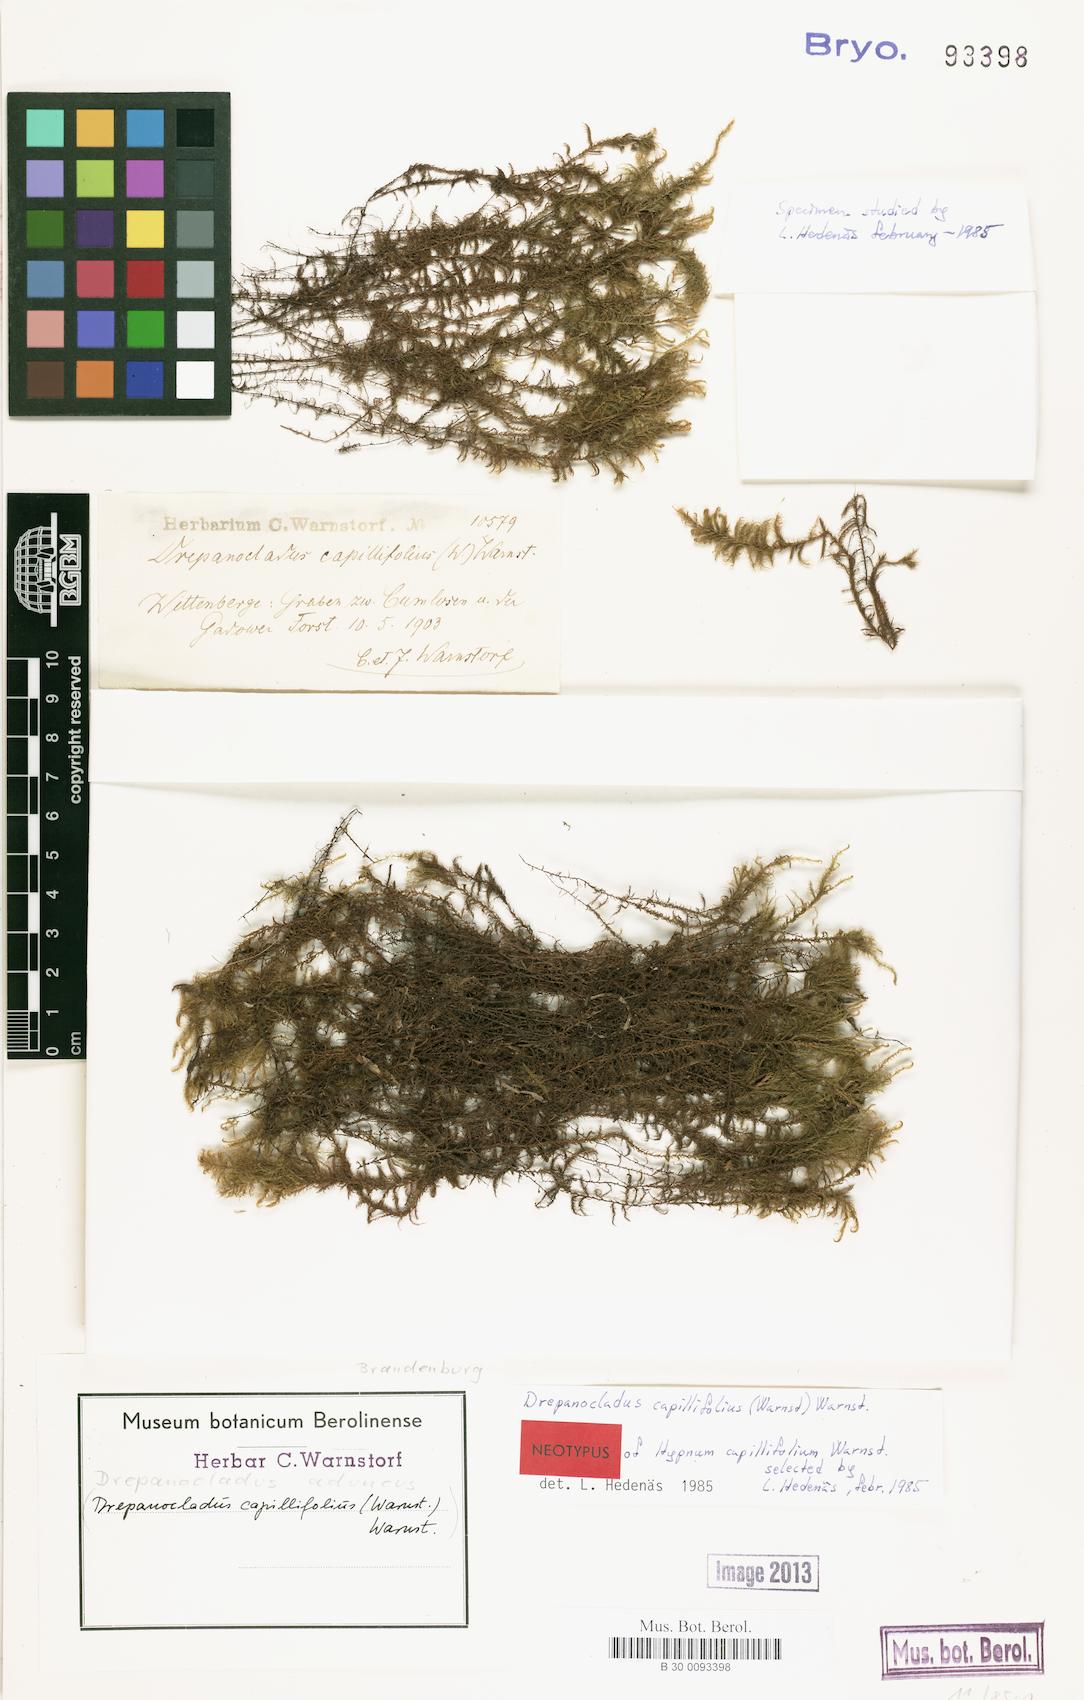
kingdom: Plantae
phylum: Bryophyta
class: Bryopsida
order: Hypnales
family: Amblystegiaceae
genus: Drepanocladus
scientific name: Drepanocladus aduncus
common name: Knieff's hook moss
